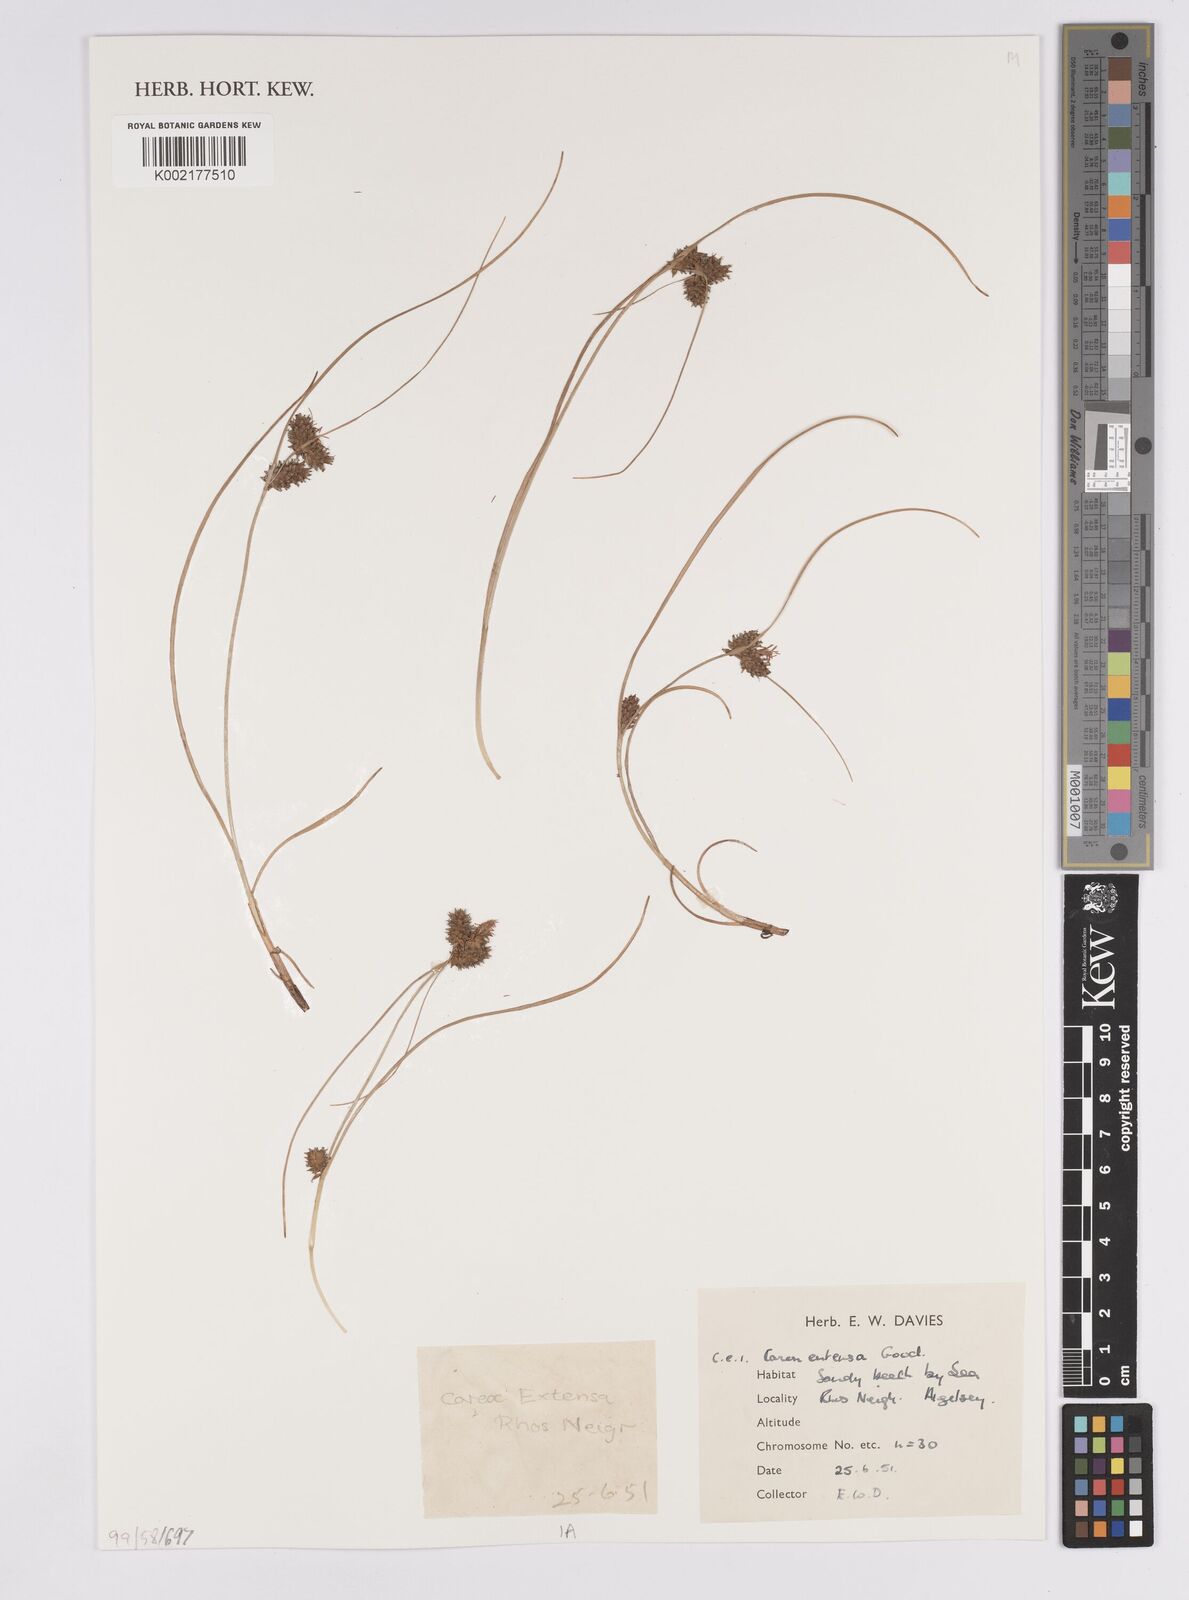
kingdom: Plantae
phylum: Tracheophyta
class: Liliopsida
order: Poales
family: Cyperaceae
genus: Carex
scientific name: Carex extensa
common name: Long-bracted sedge
